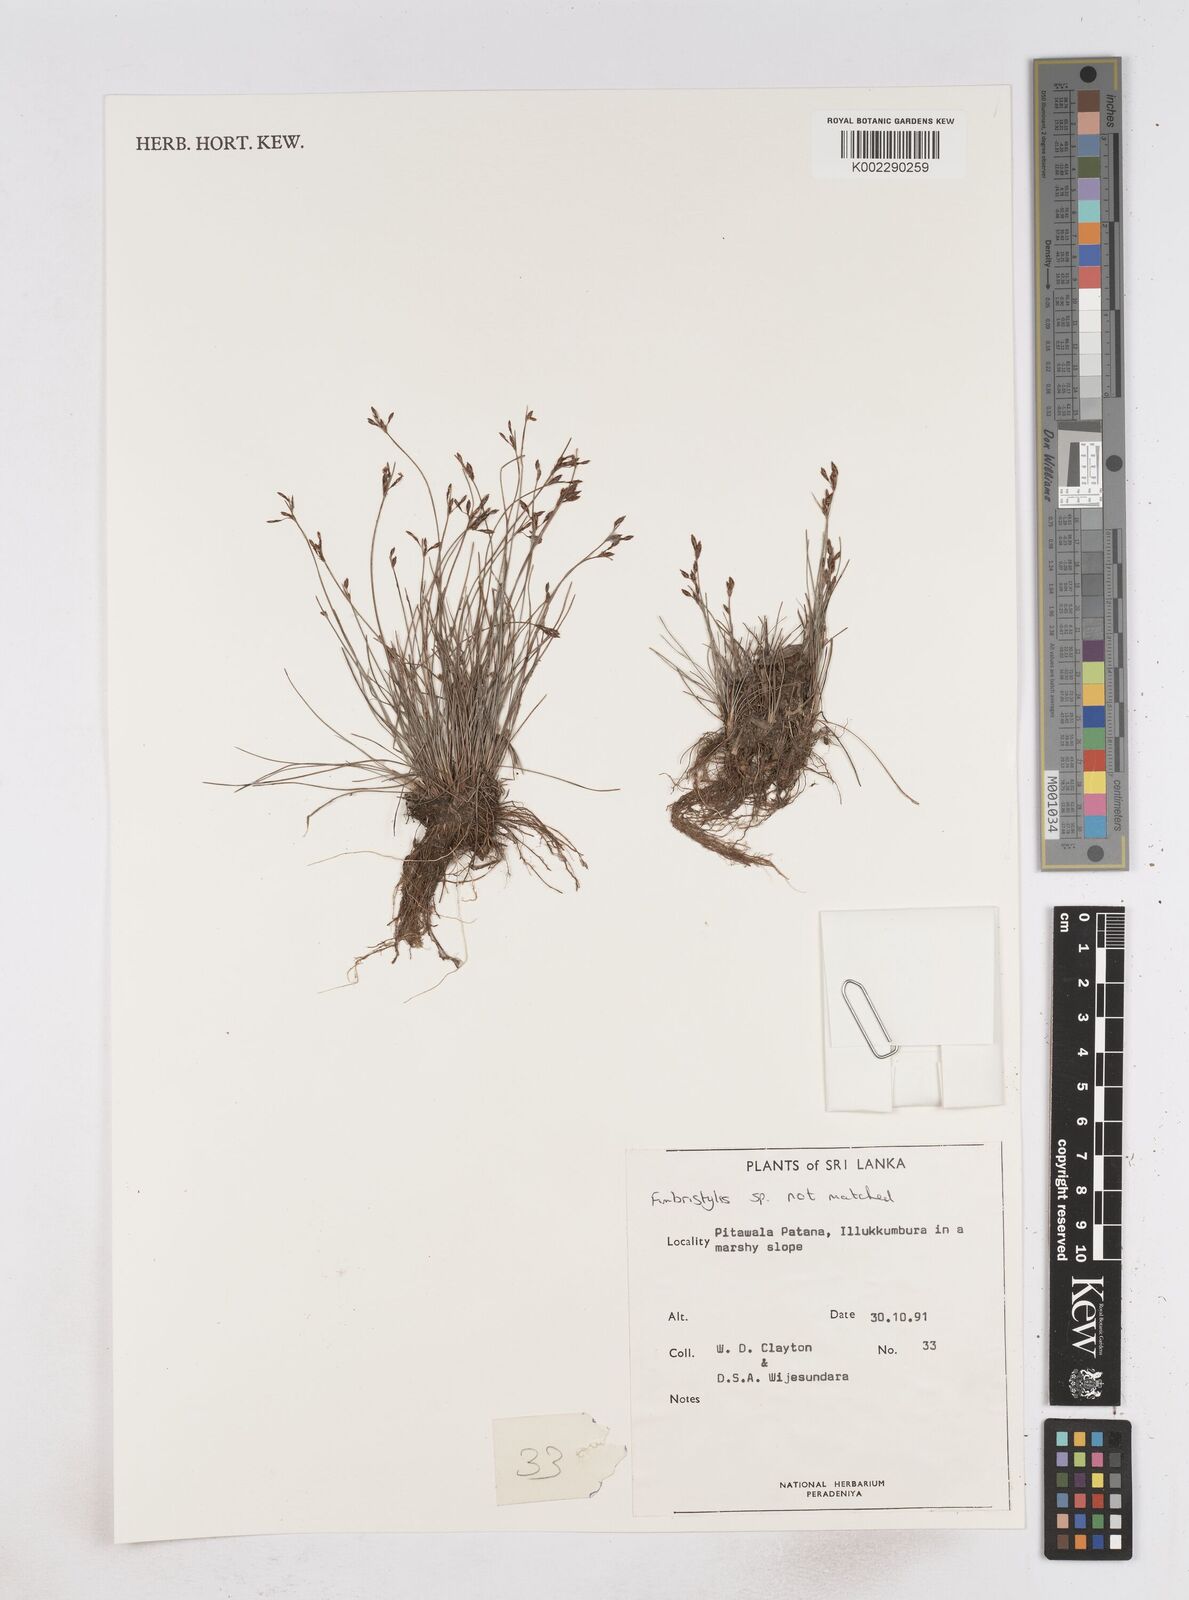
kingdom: Plantae
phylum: Tracheophyta
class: Liliopsida
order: Poales
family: Cyperaceae
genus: Fimbristylis
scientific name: Fimbristylis
